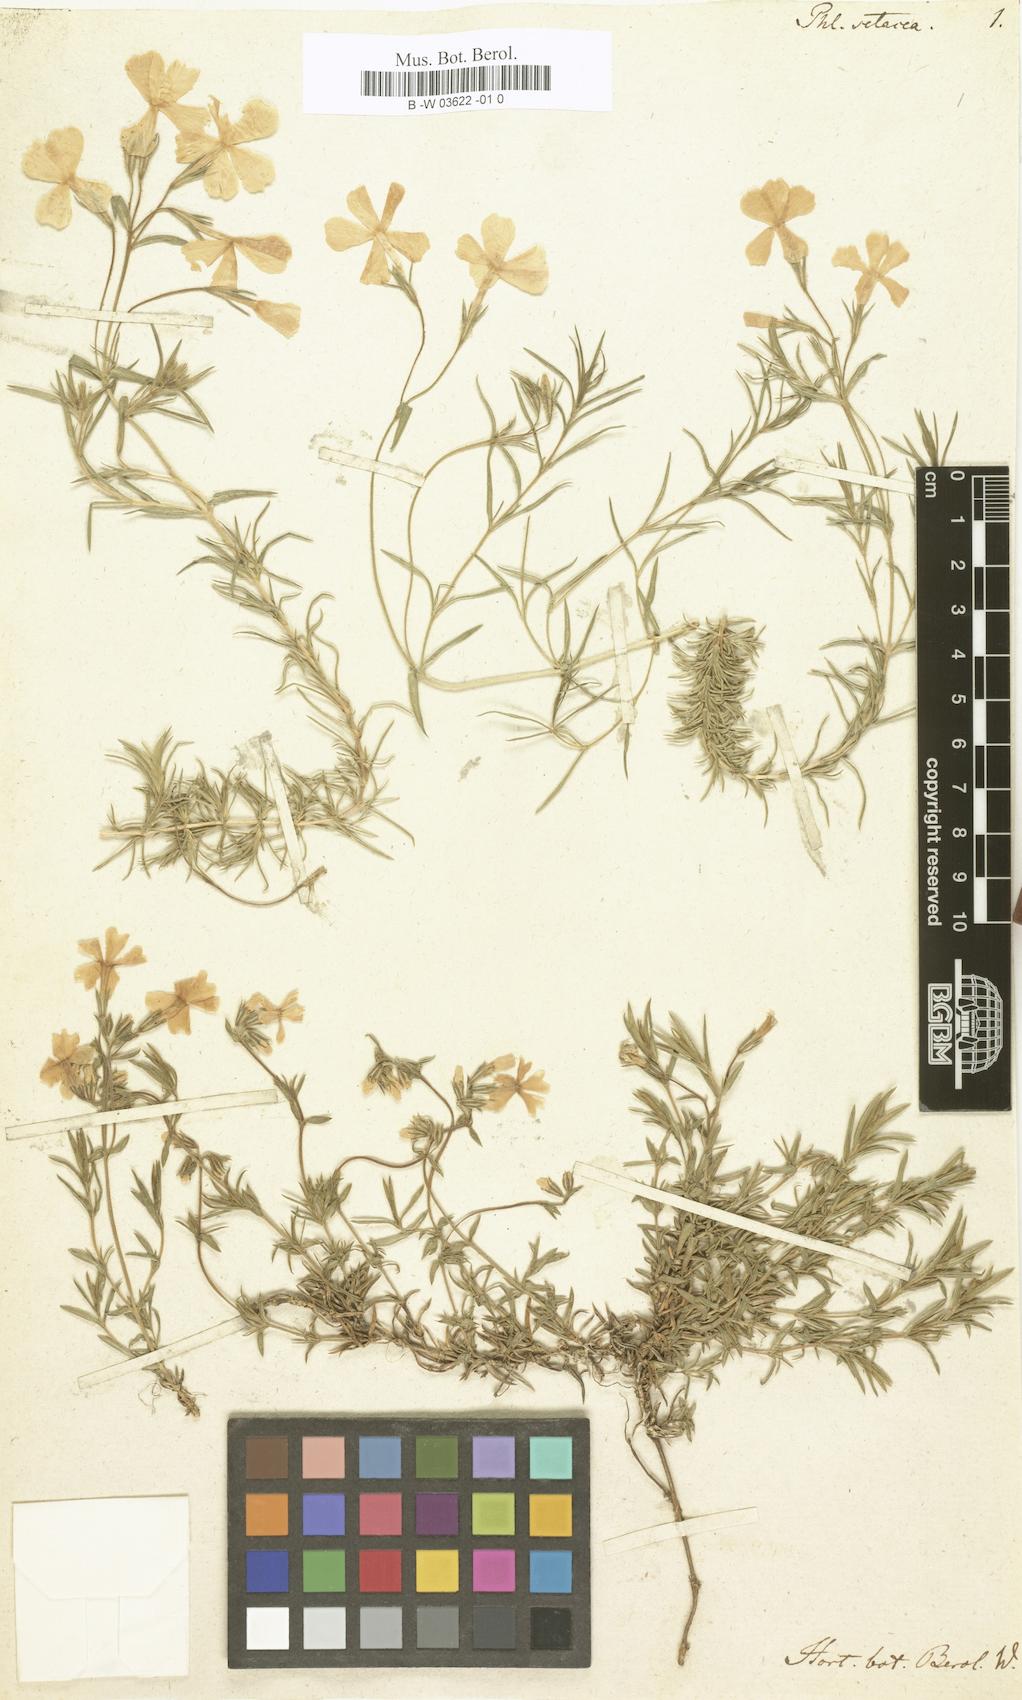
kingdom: Plantae
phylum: Tracheophyta
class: Magnoliopsida
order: Ericales
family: Polemoniaceae
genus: Phlox
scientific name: Phlox subulata
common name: Moss phlox
